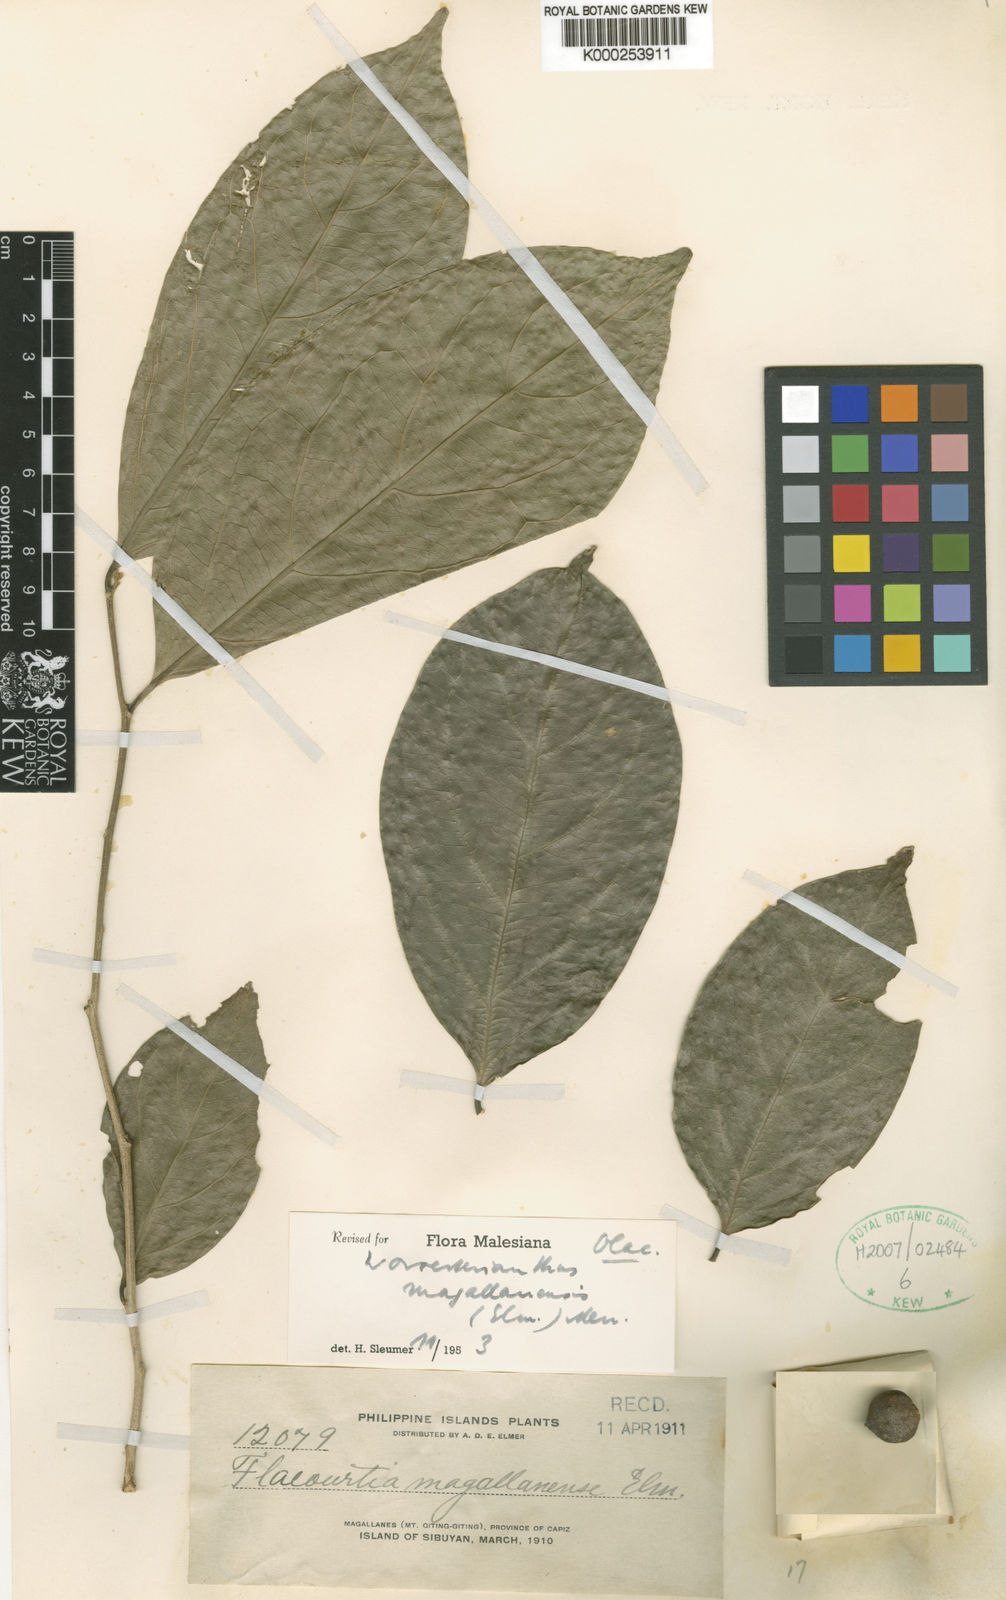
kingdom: Plantae
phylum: Tracheophyta
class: Magnoliopsida
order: Malpighiales
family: Pandaceae
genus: Microdesmis
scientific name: Microdesmis magallanensis
